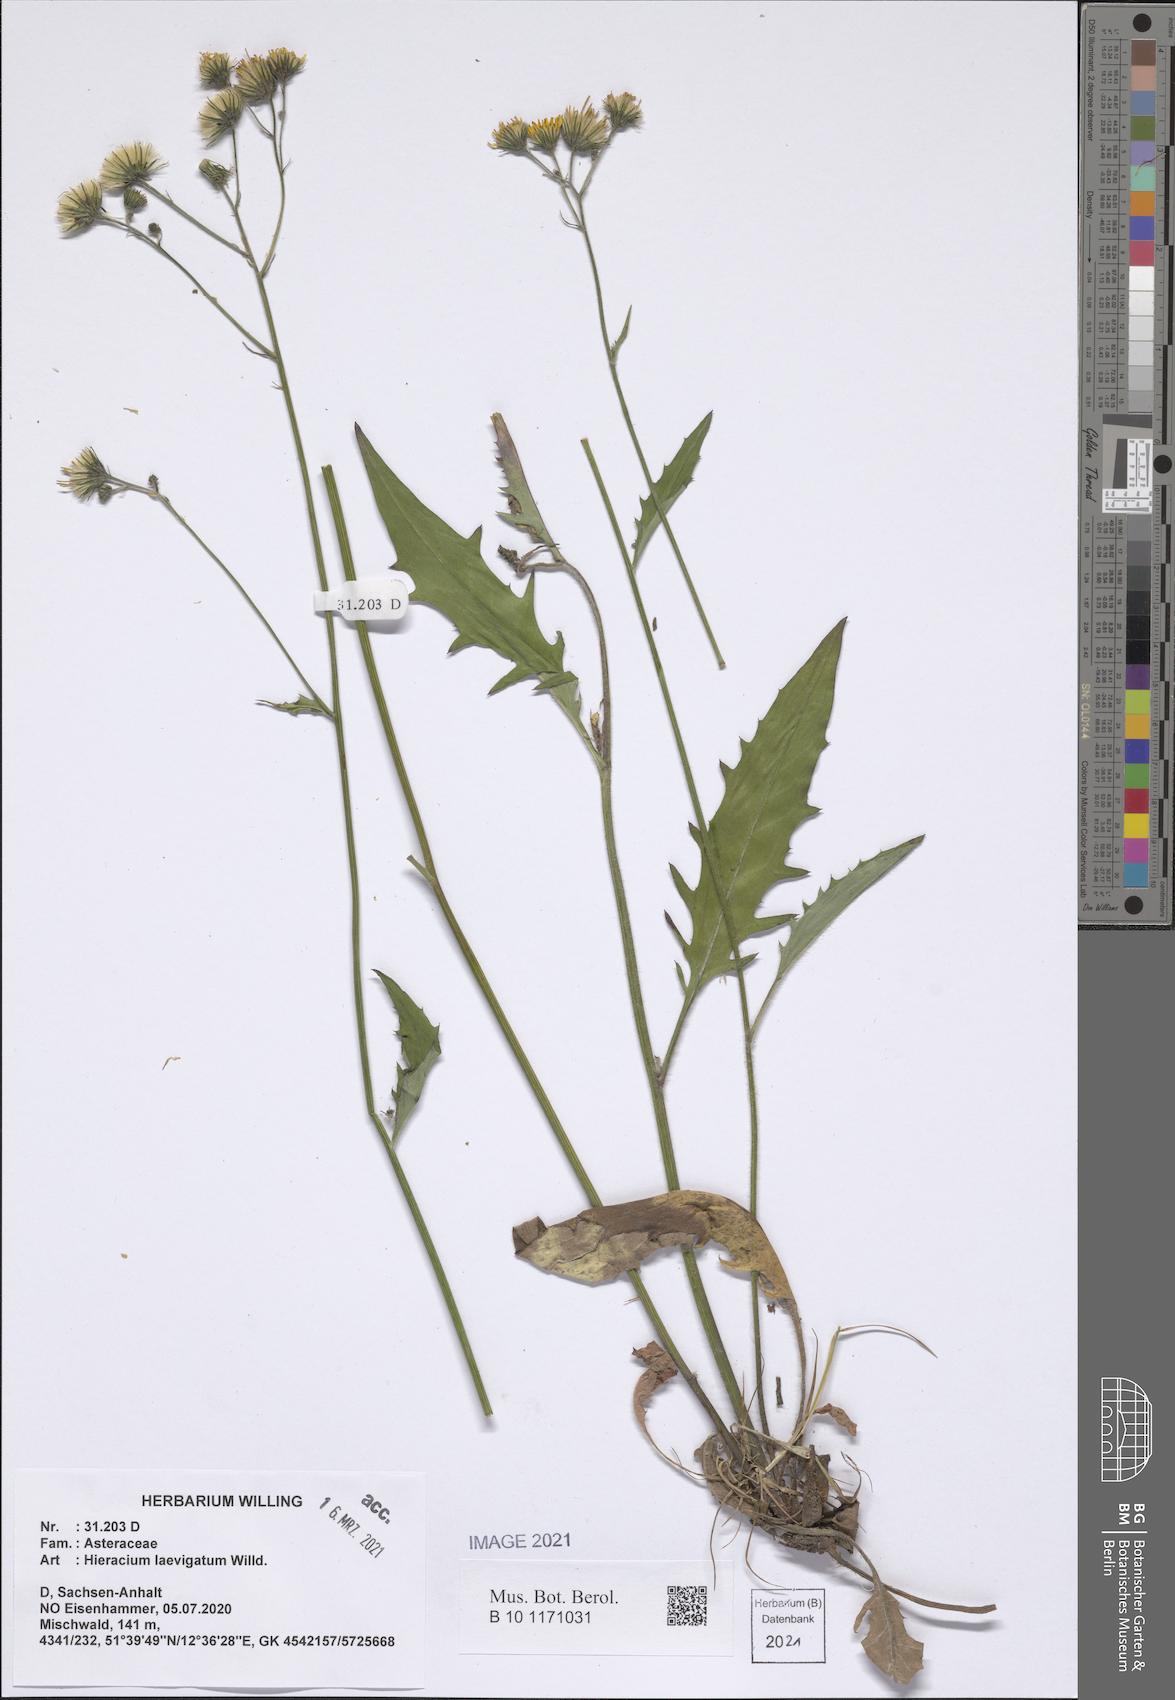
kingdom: Plantae
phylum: Tracheophyta
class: Magnoliopsida
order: Asterales
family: Asteraceae
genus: Hieracium
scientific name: Hieracium laevigatum
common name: Smooth hawkweed
